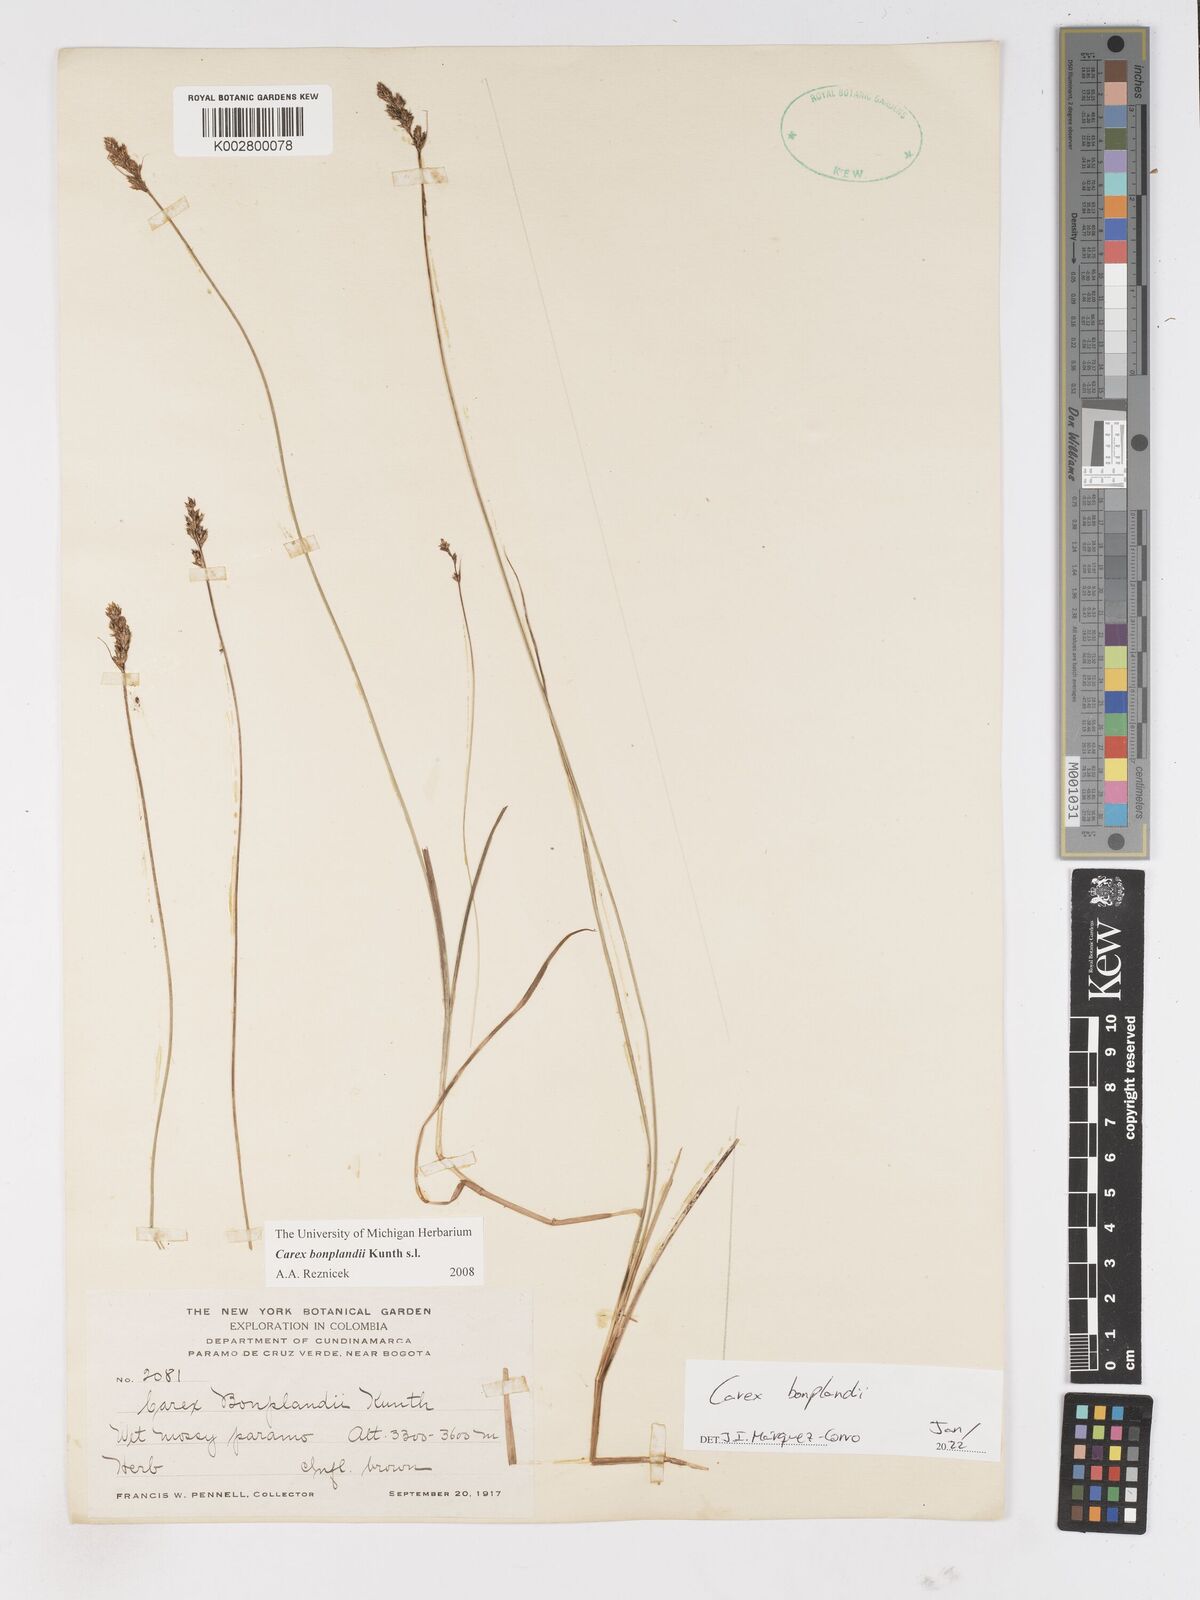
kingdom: Plantae
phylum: Tracheophyta
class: Liliopsida
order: Poales
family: Cyperaceae
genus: Carex
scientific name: Carex bonplandii
